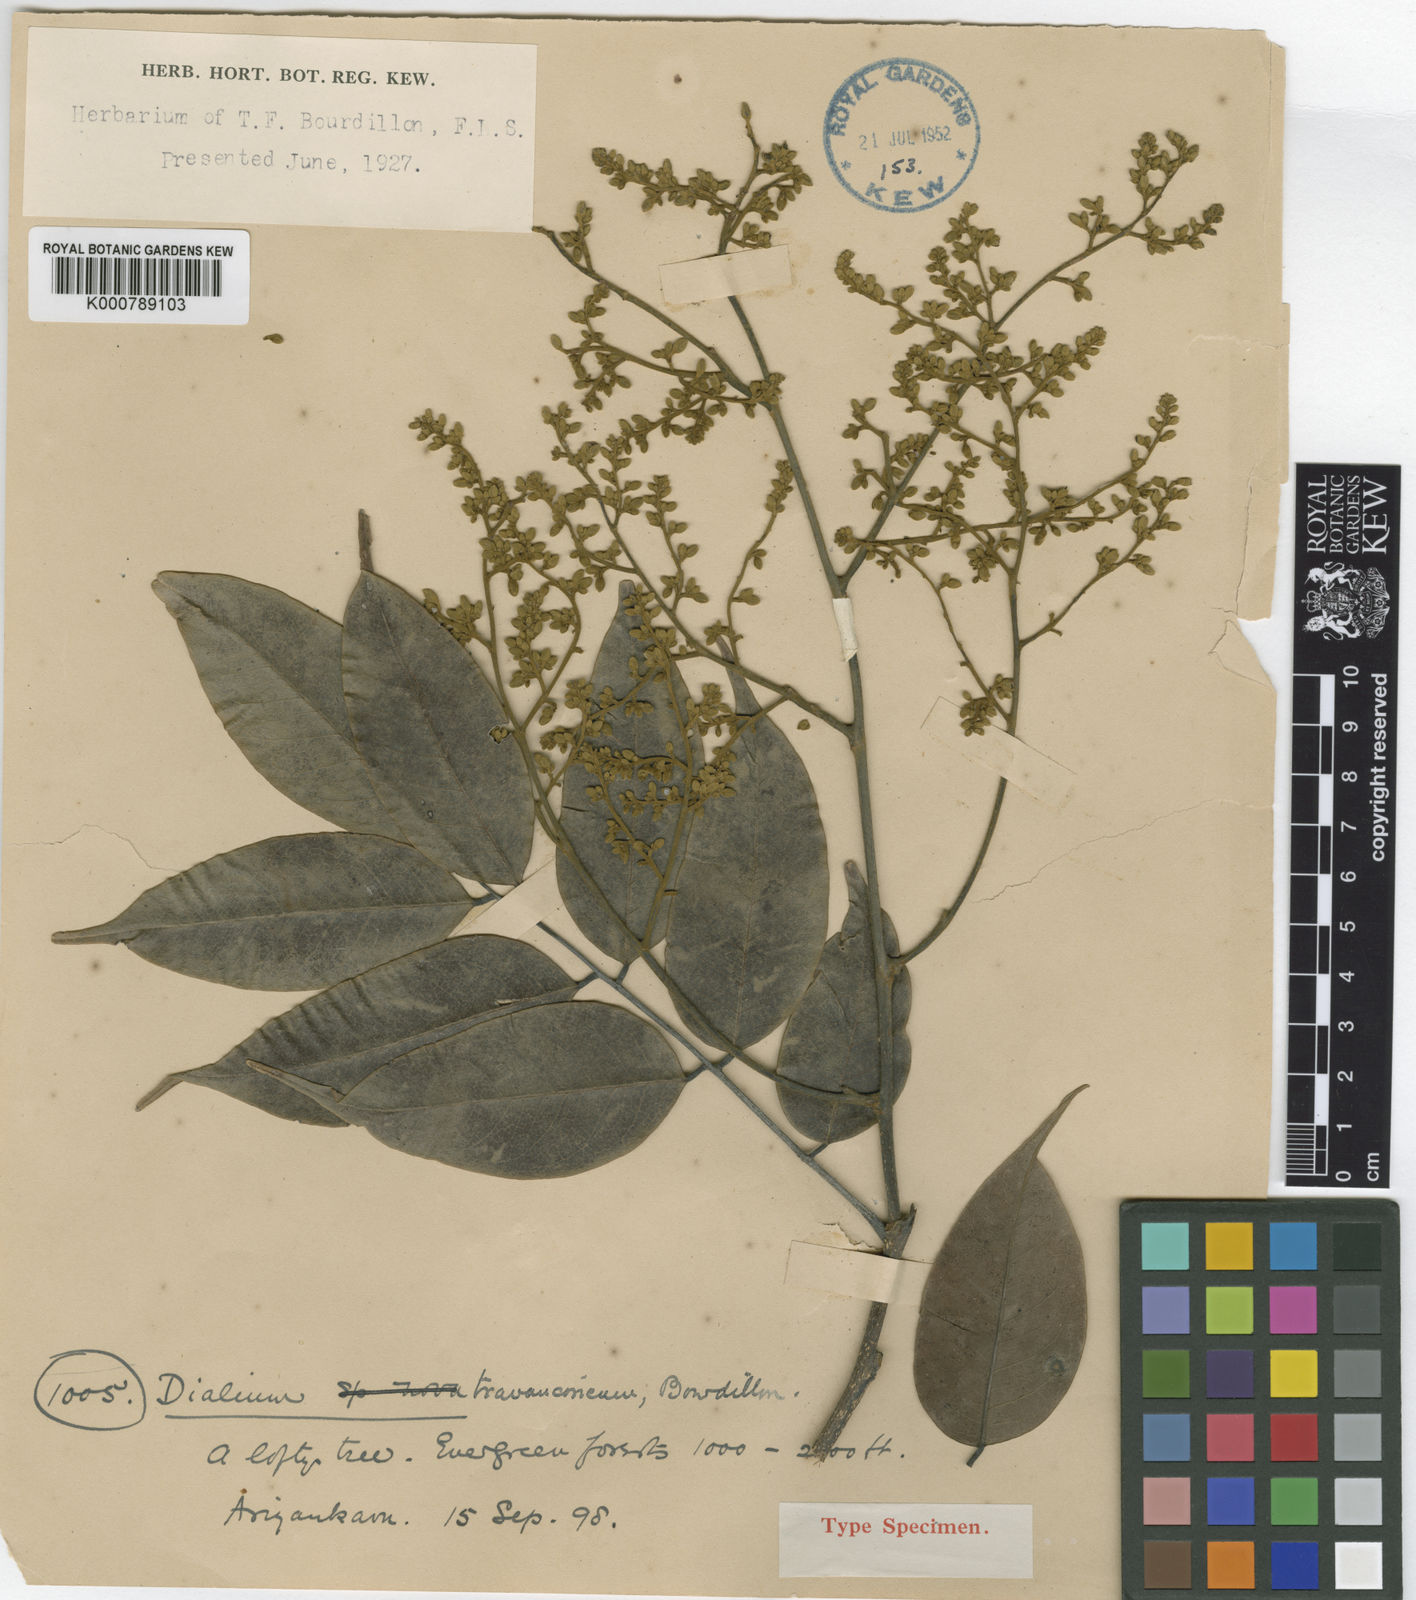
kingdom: Plantae
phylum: Tracheophyta
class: Magnoliopsida
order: Fabales
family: Fabaceae
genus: Dialium
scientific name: Dialium travancoricum
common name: Hill tamarind
